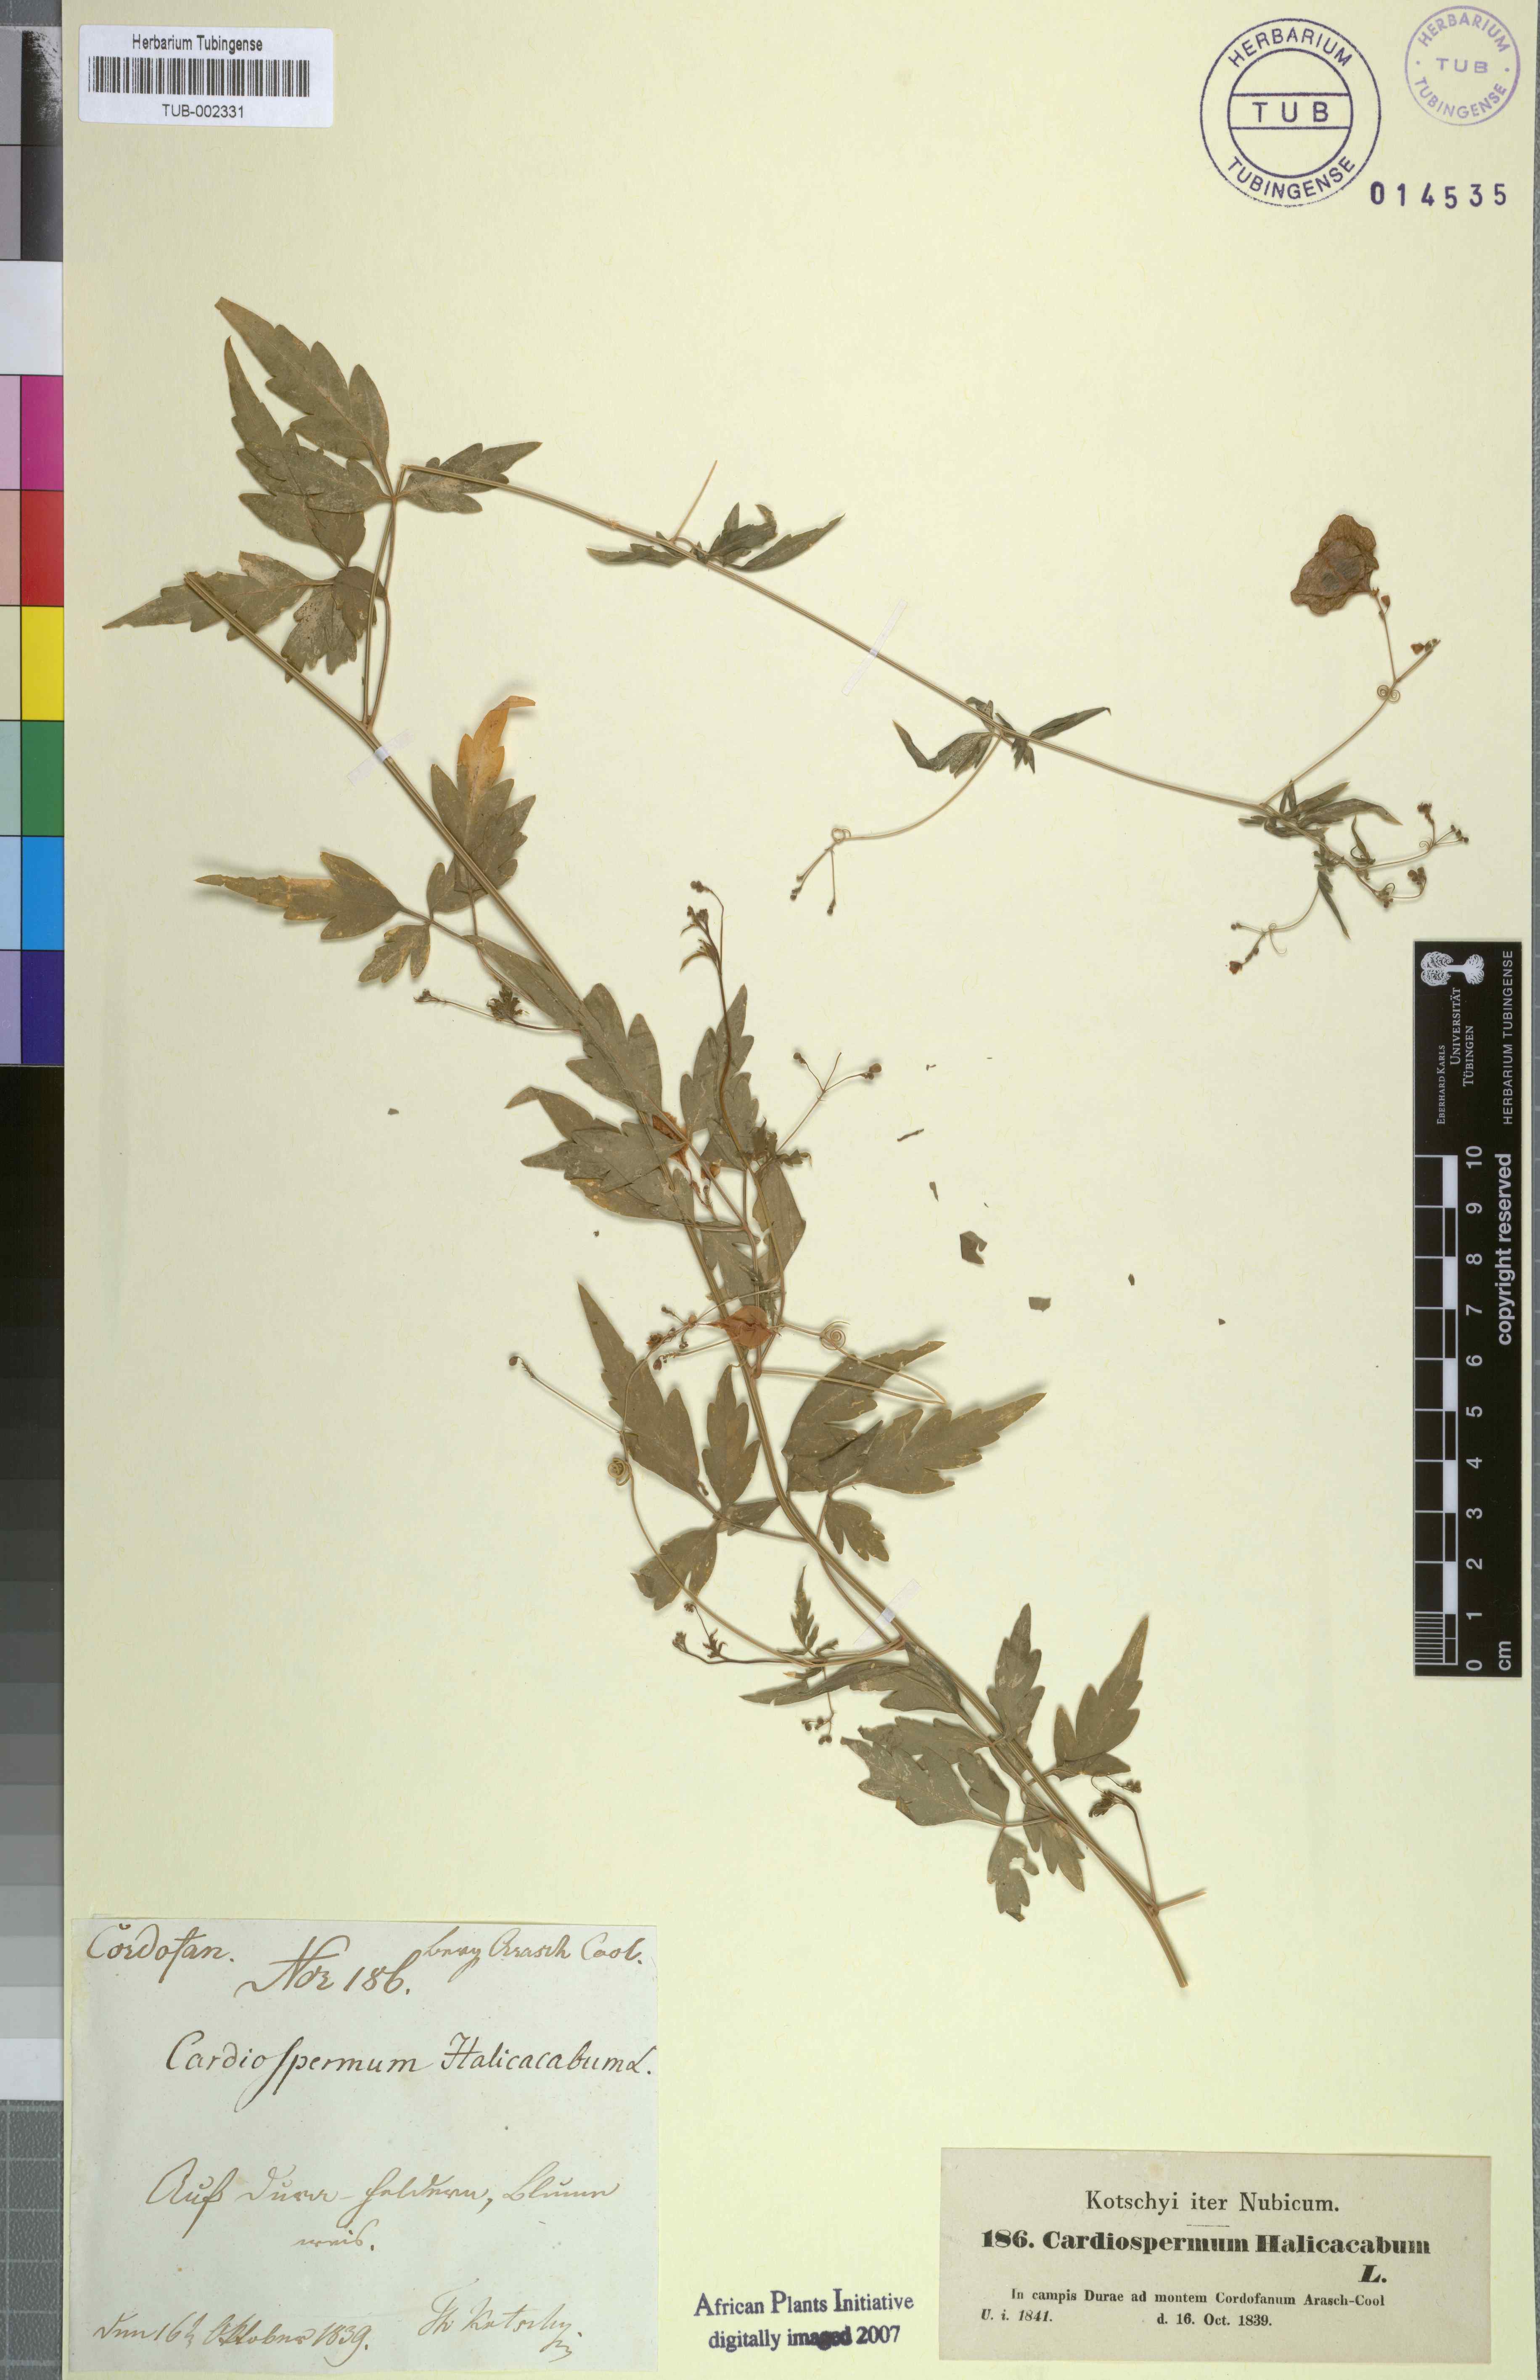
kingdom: Plantae
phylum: Tracheophyta
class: Magnoliopsida
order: Sapindales
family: Sapindaceae
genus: Cardiospermum
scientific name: Cardiospermum halicacabum
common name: Balloon vine
